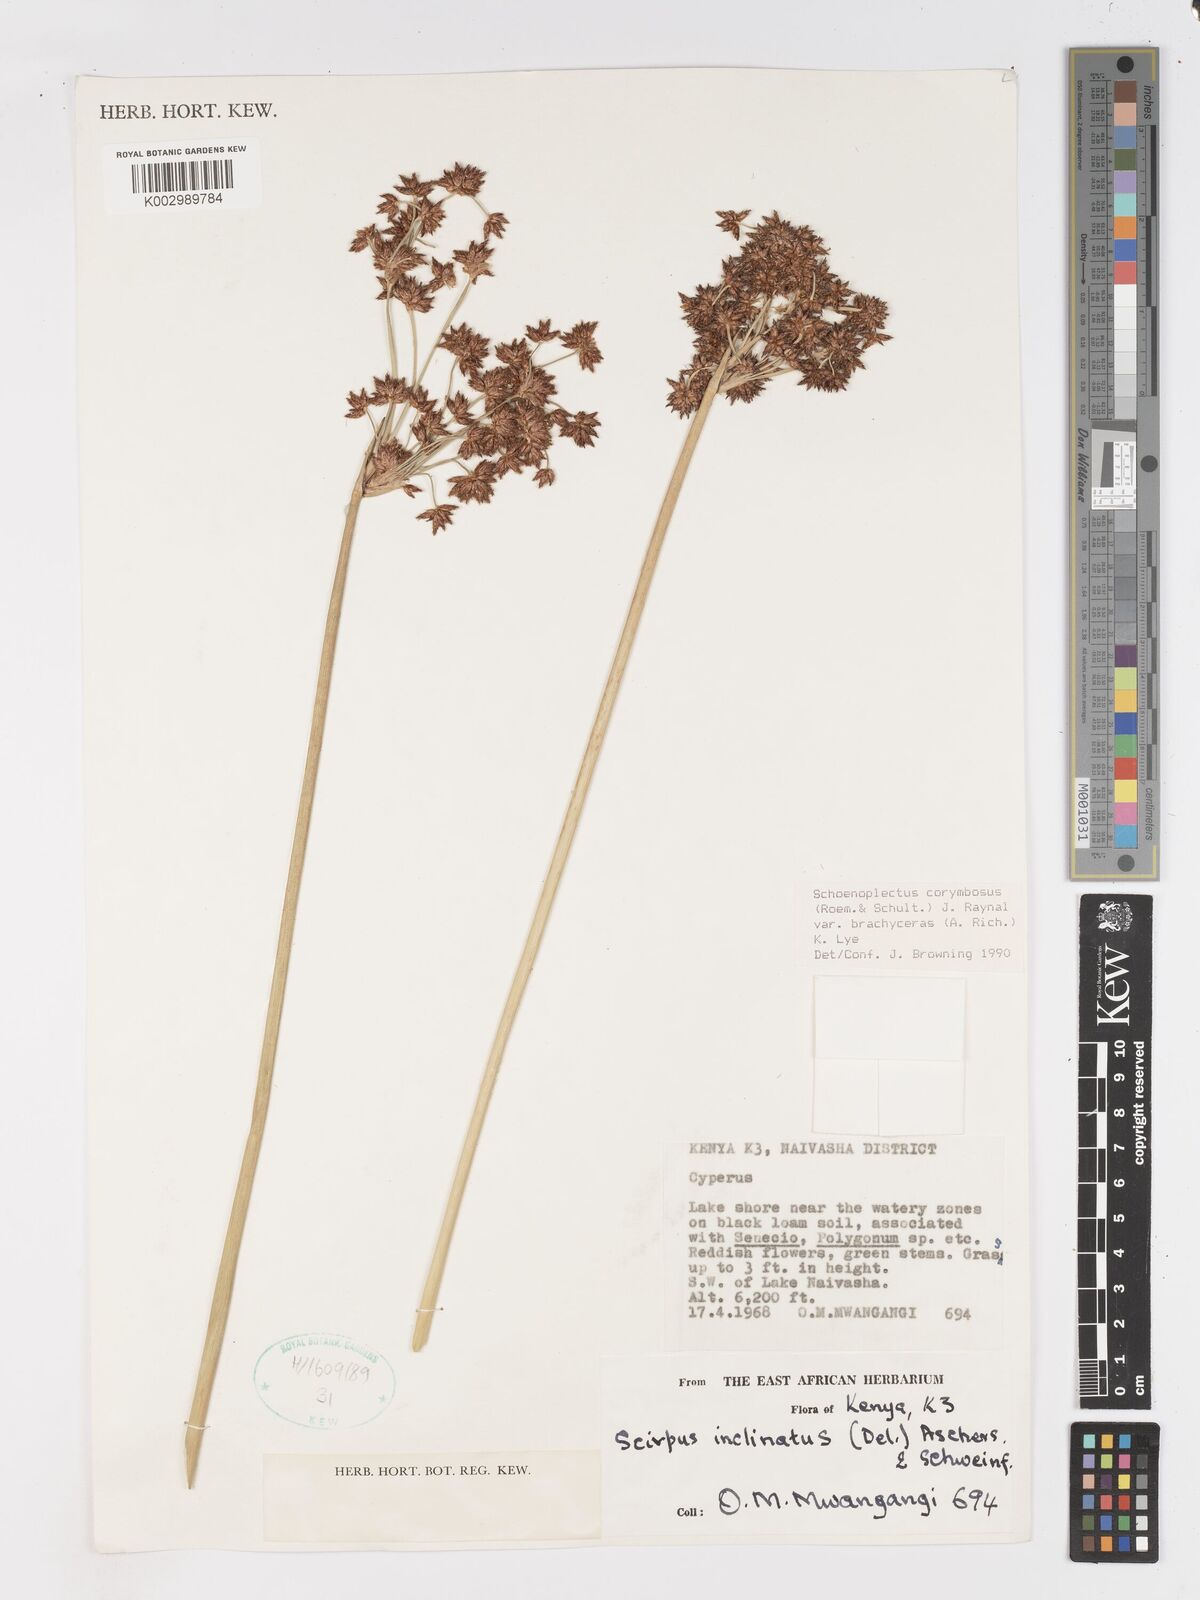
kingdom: Plantae
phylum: Tracheophyta
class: Liliopsida
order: Poales
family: Cyperaceae
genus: Schoenoplectiella
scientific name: Schoenoplectiella brachyceras
